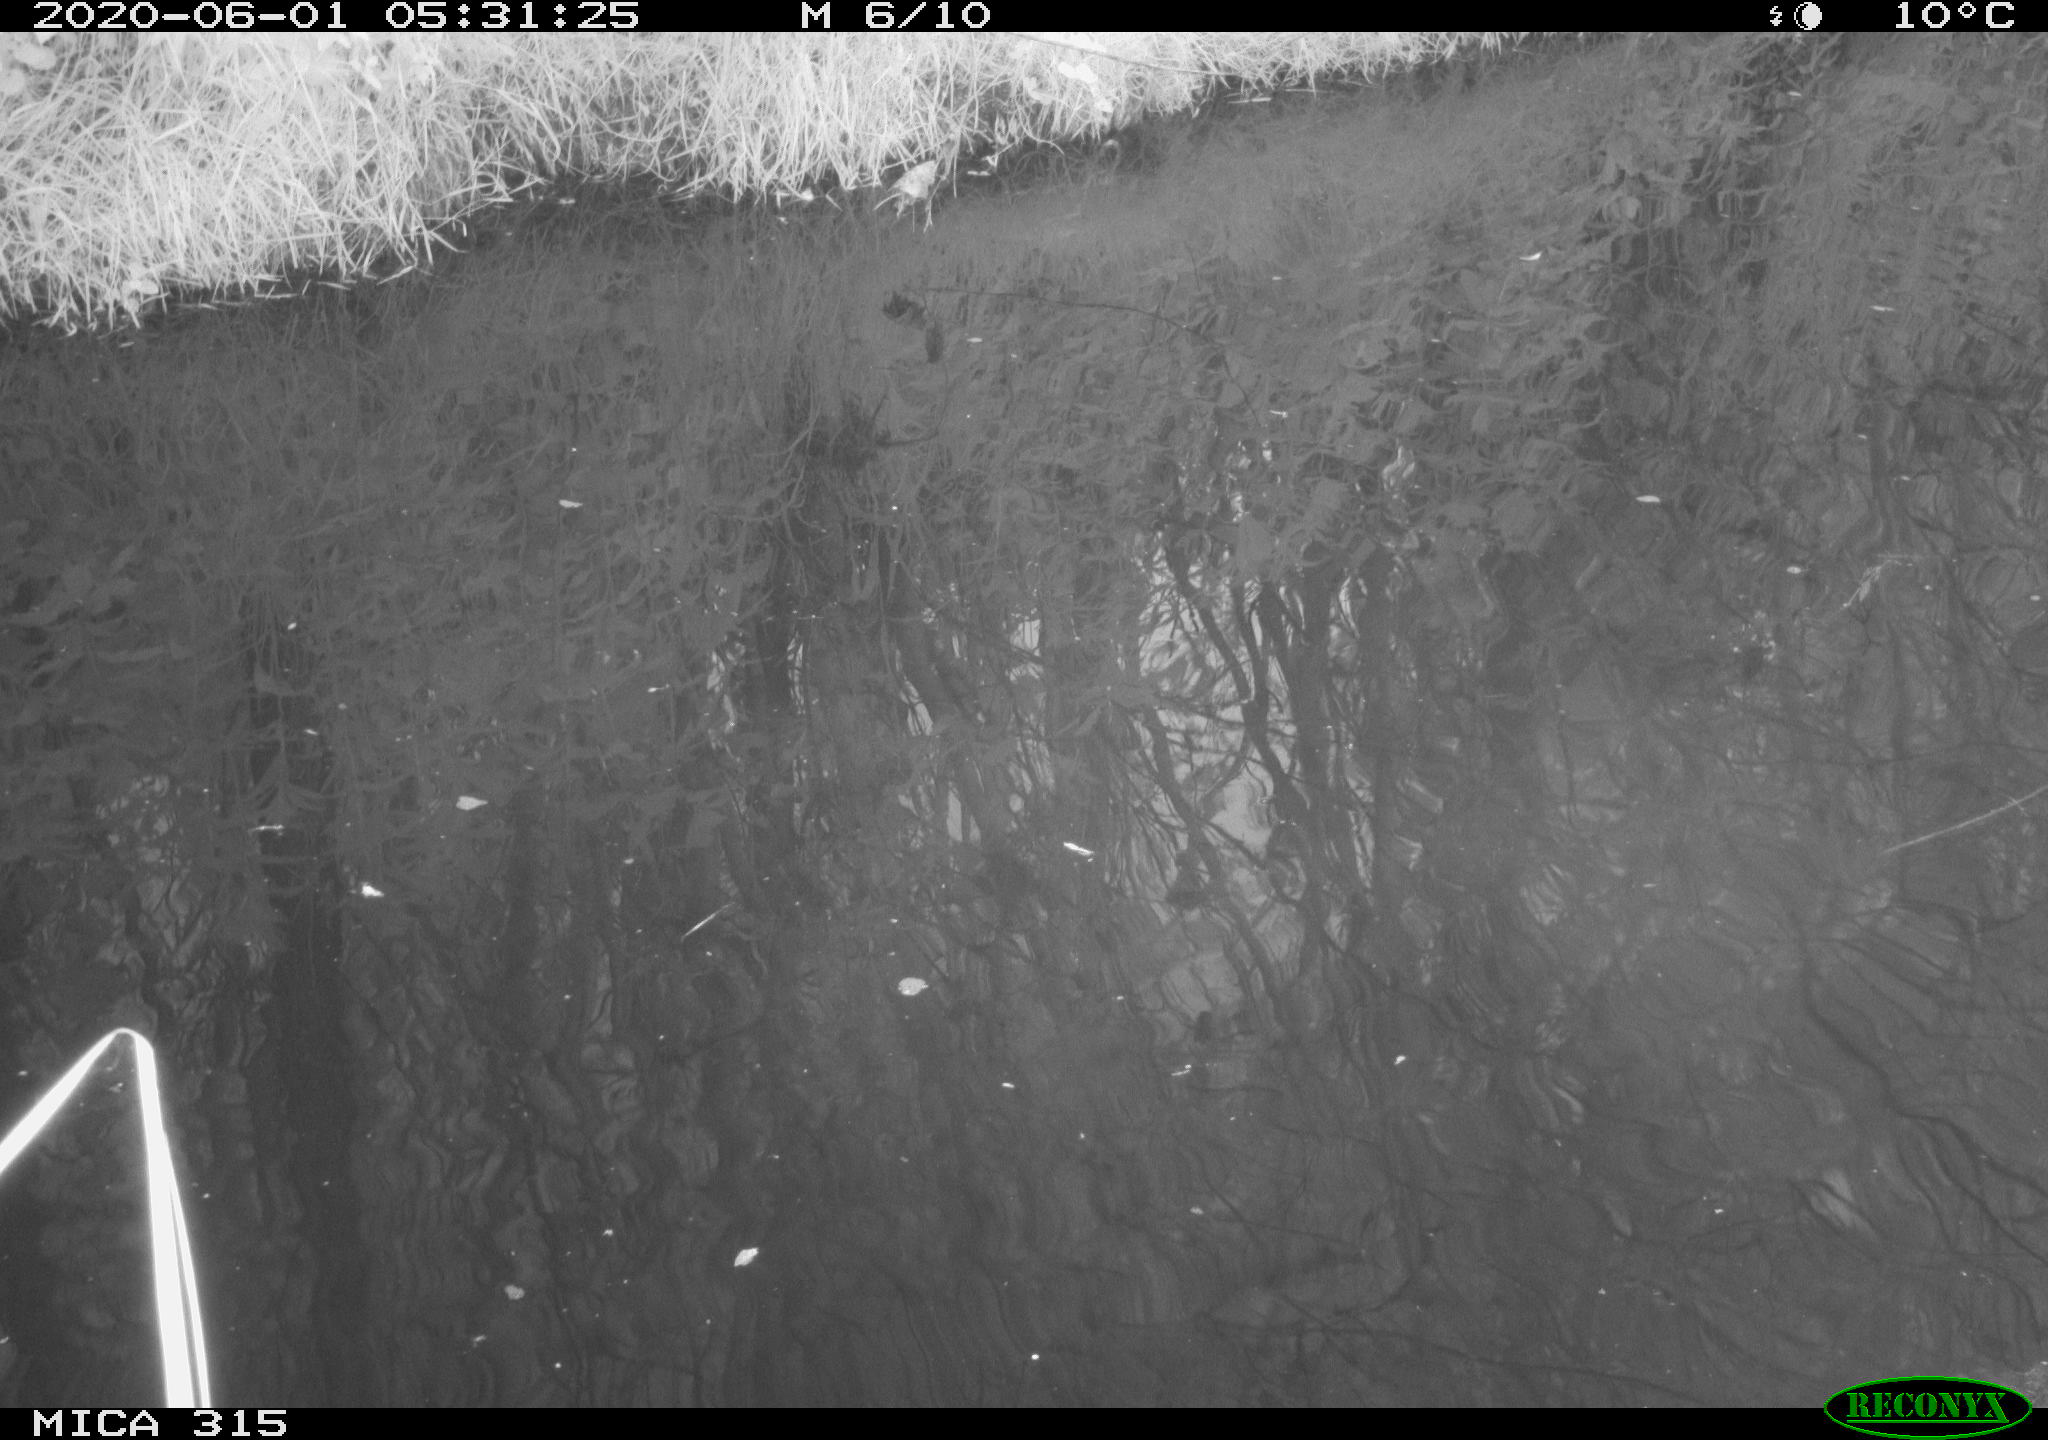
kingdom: Animalia
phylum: Chordata
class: Aves
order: Gruiformes
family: Rallidae
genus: Gallinula
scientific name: Gallinula chloropus
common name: Common moorhen
